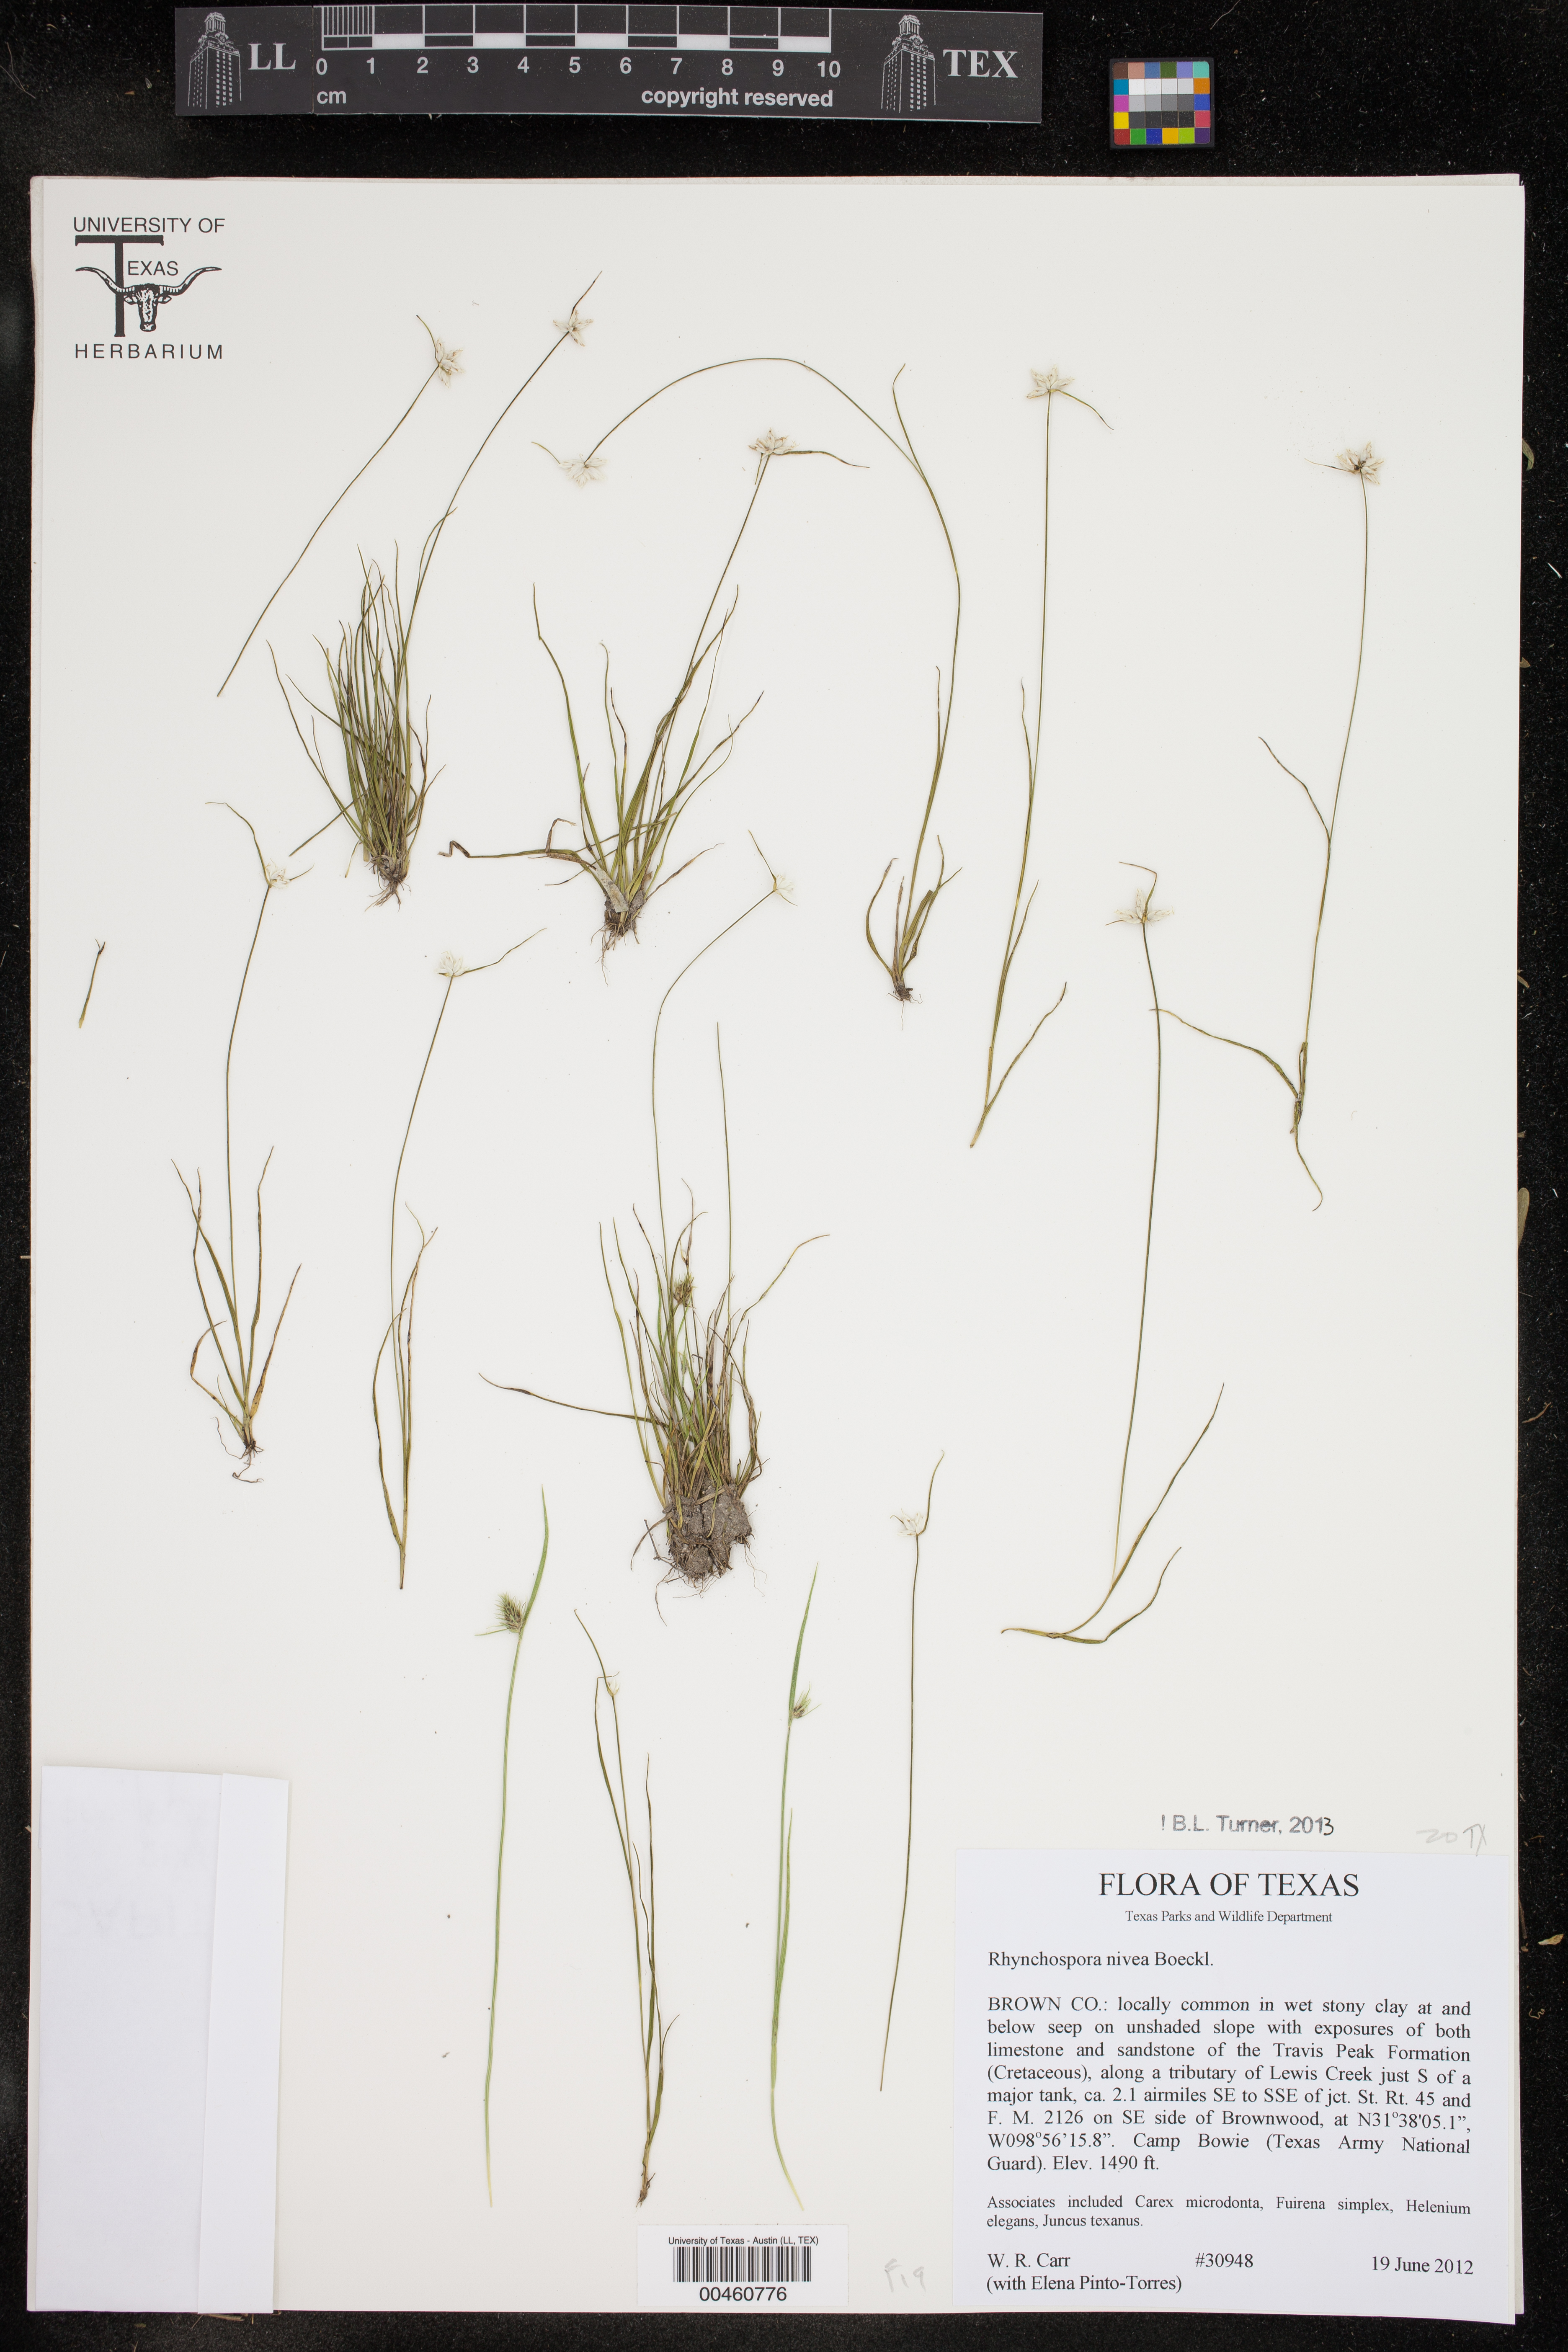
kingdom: Plantae
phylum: Tracheophyta
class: Liliopsida
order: Poales
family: Cyperaceae
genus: Rhynchospora
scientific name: Rhynchospora nivea
